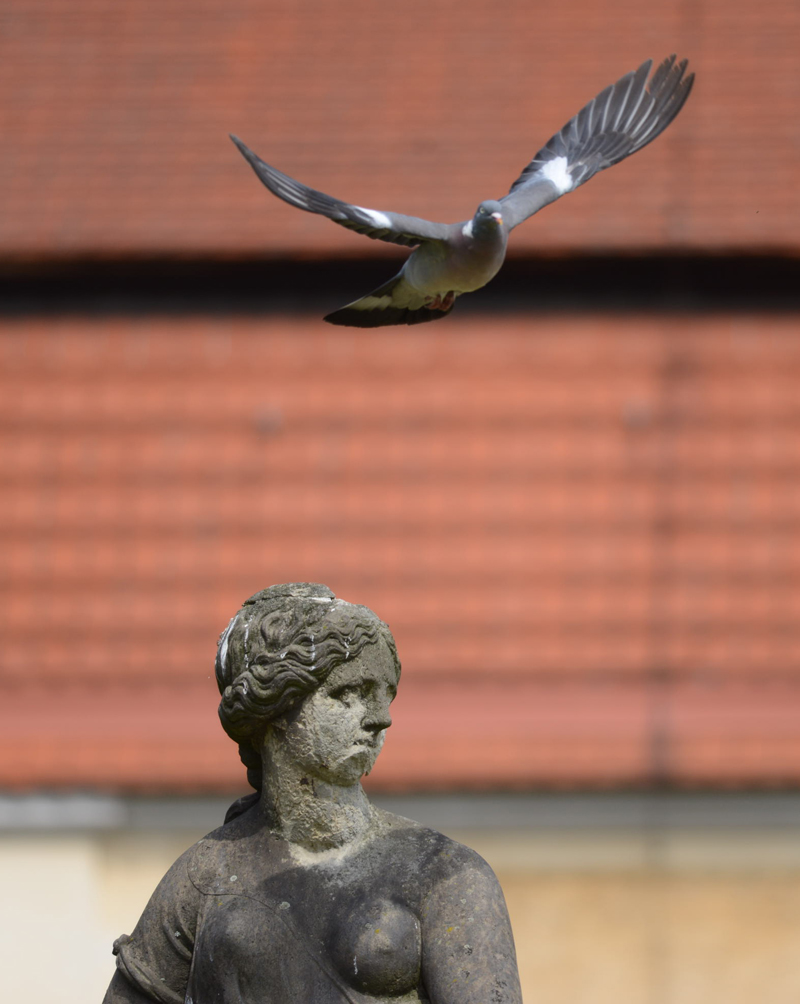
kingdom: Animalia
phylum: Chordata
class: Aves
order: Columbiformes
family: Columbidae
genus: Columba
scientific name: Columba palumbus
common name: Common wood pigeon
